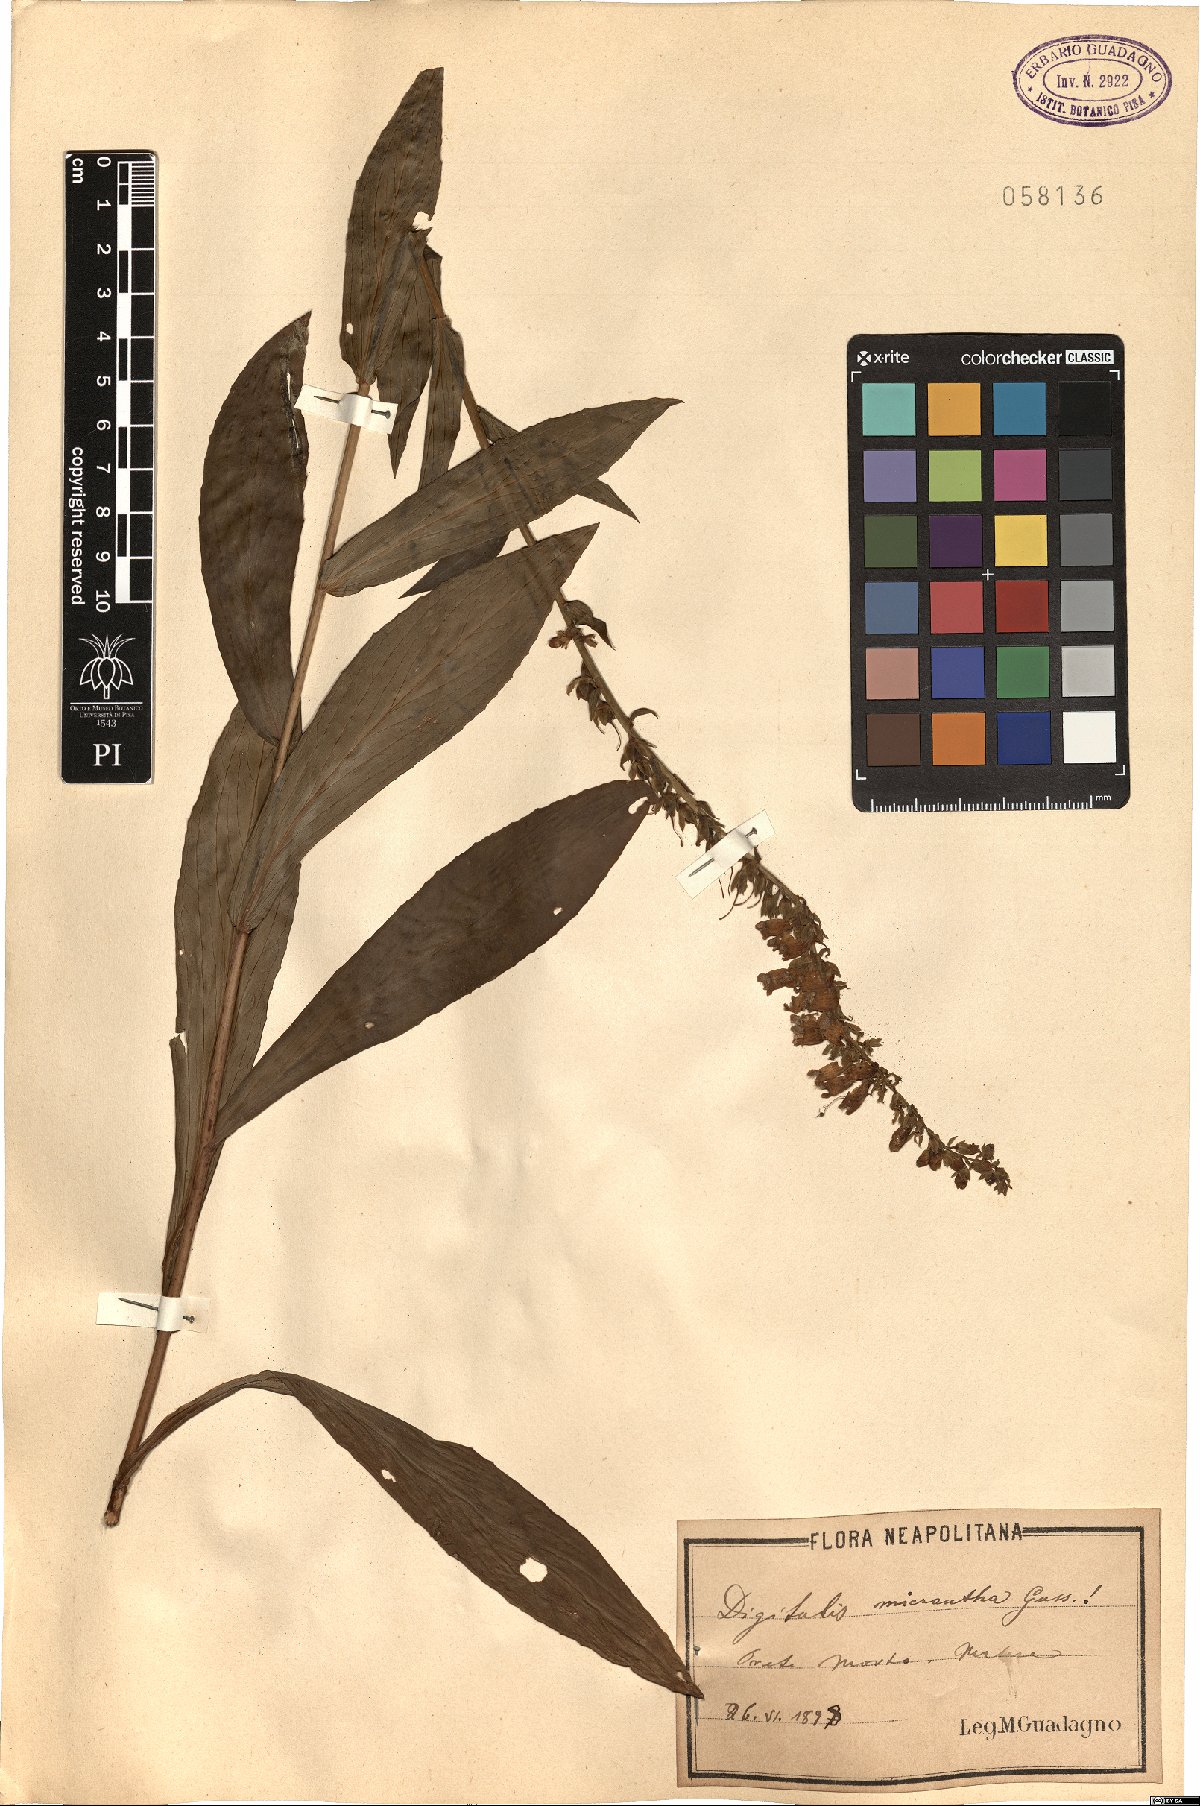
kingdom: Plantae
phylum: Tracheophyta
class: Magnoliopsida
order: Lamiales
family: Plantaginaceae
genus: Digitalis
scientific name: Digitalis lutea
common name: Straw foxglove
